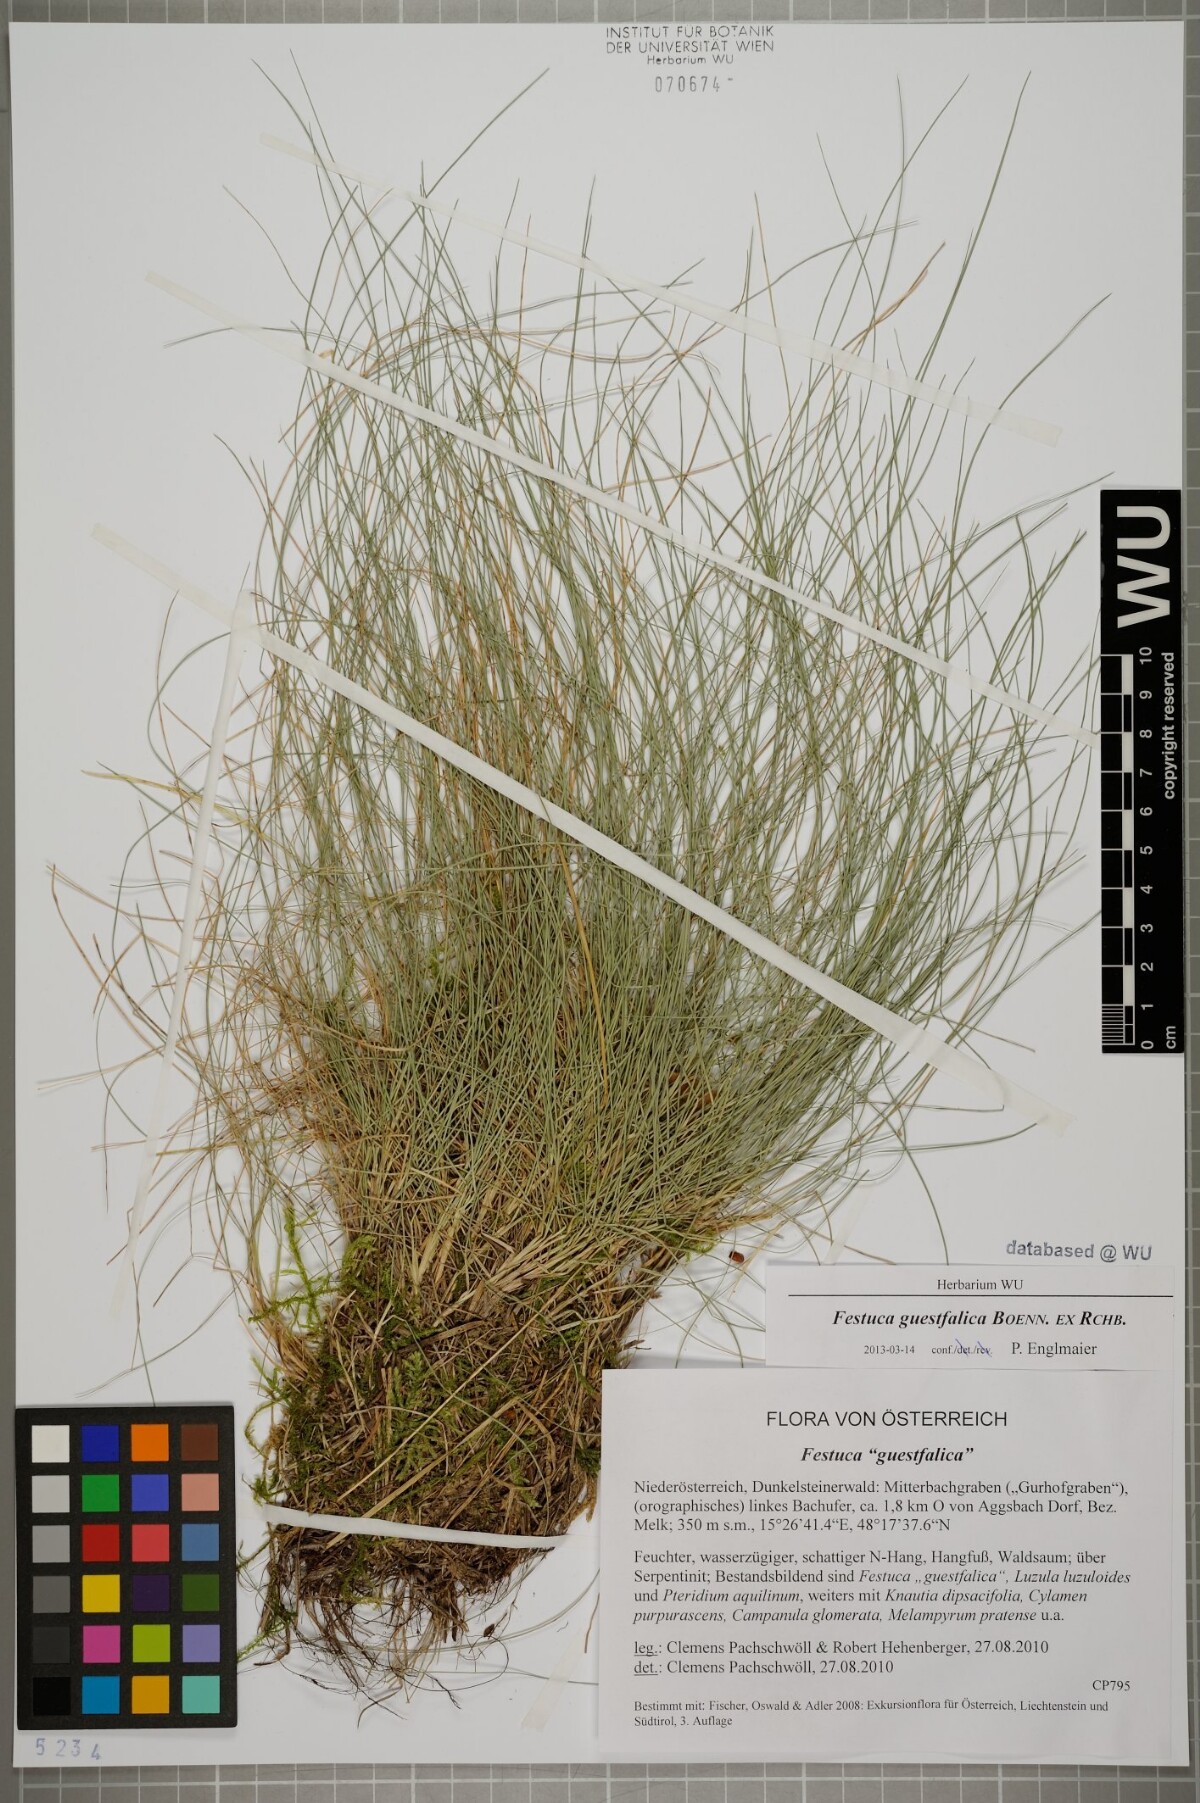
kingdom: Plantae
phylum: Tracheophyta
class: Liliopsida
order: Poales
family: Poaceae
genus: Festuca
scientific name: Festuca guestfalica
